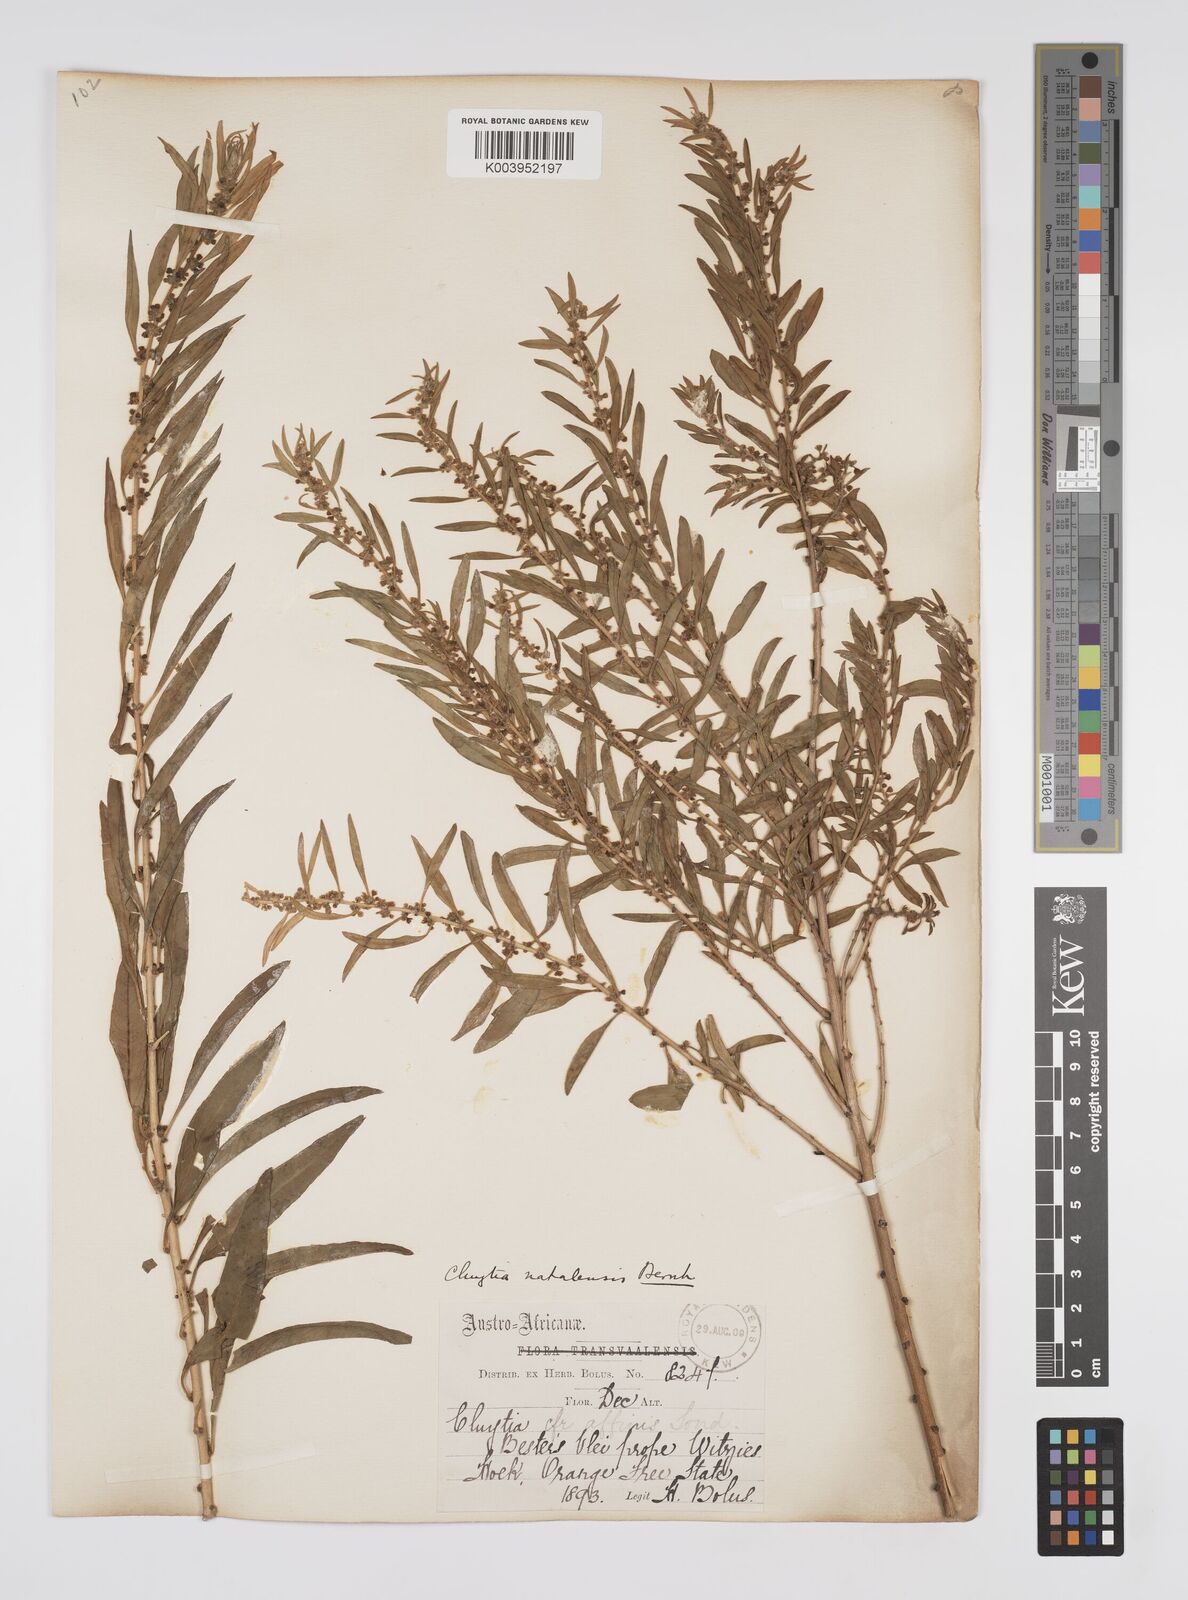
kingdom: Plantae
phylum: Tracheophyta
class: Magnoliopsida
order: Malpighiales
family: Peraceae
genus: Clutia
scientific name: Clutia natalensis
